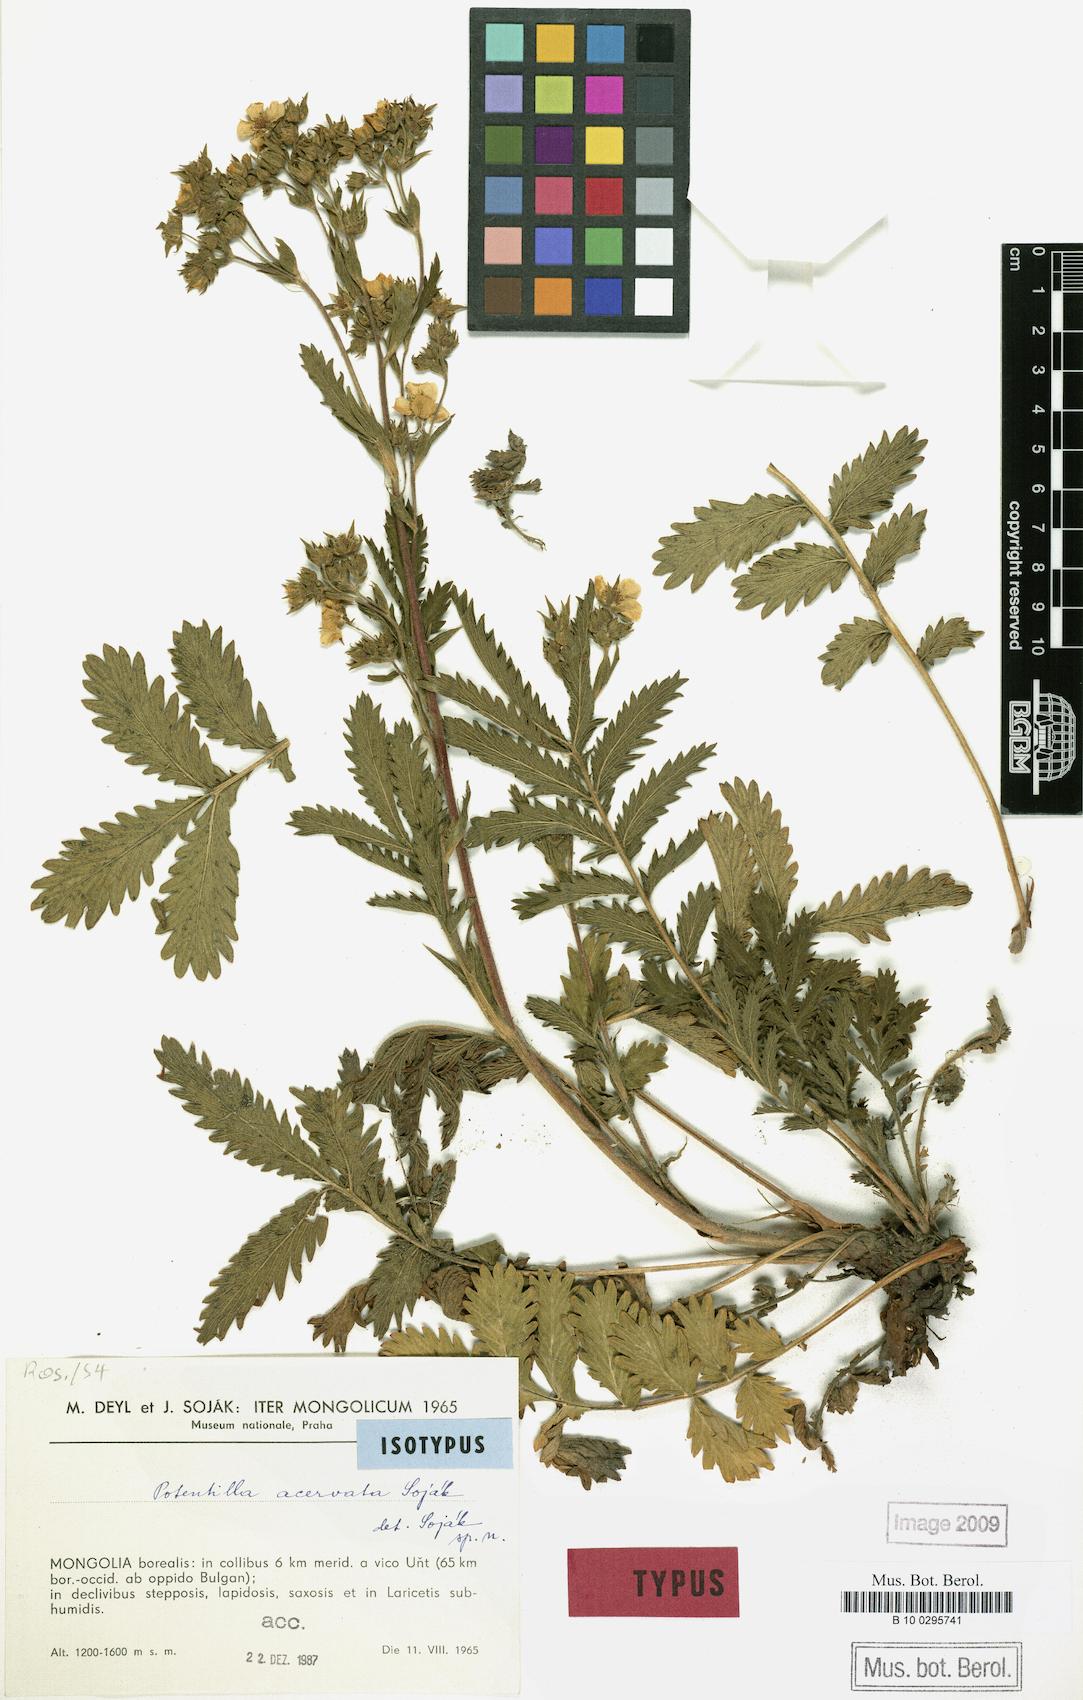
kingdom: Plantae
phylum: Tracheophyta
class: Magnoliopsida
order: Rosales
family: Rosaceae
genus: Potentilla
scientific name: Potentilla tanacetifolia
